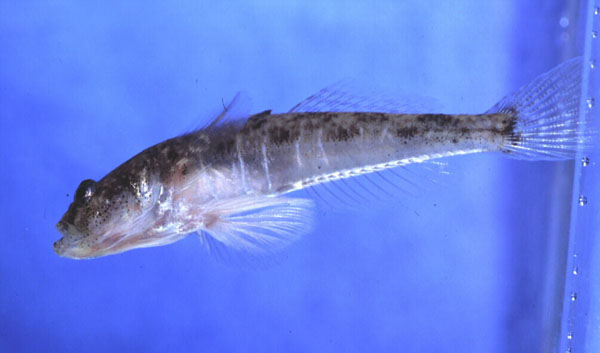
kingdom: Animalia
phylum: Chordata
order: Perciformes
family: Gobiidae
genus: Psammogobius
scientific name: Psammogobius knysnaensis
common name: Knysna sandgoby
